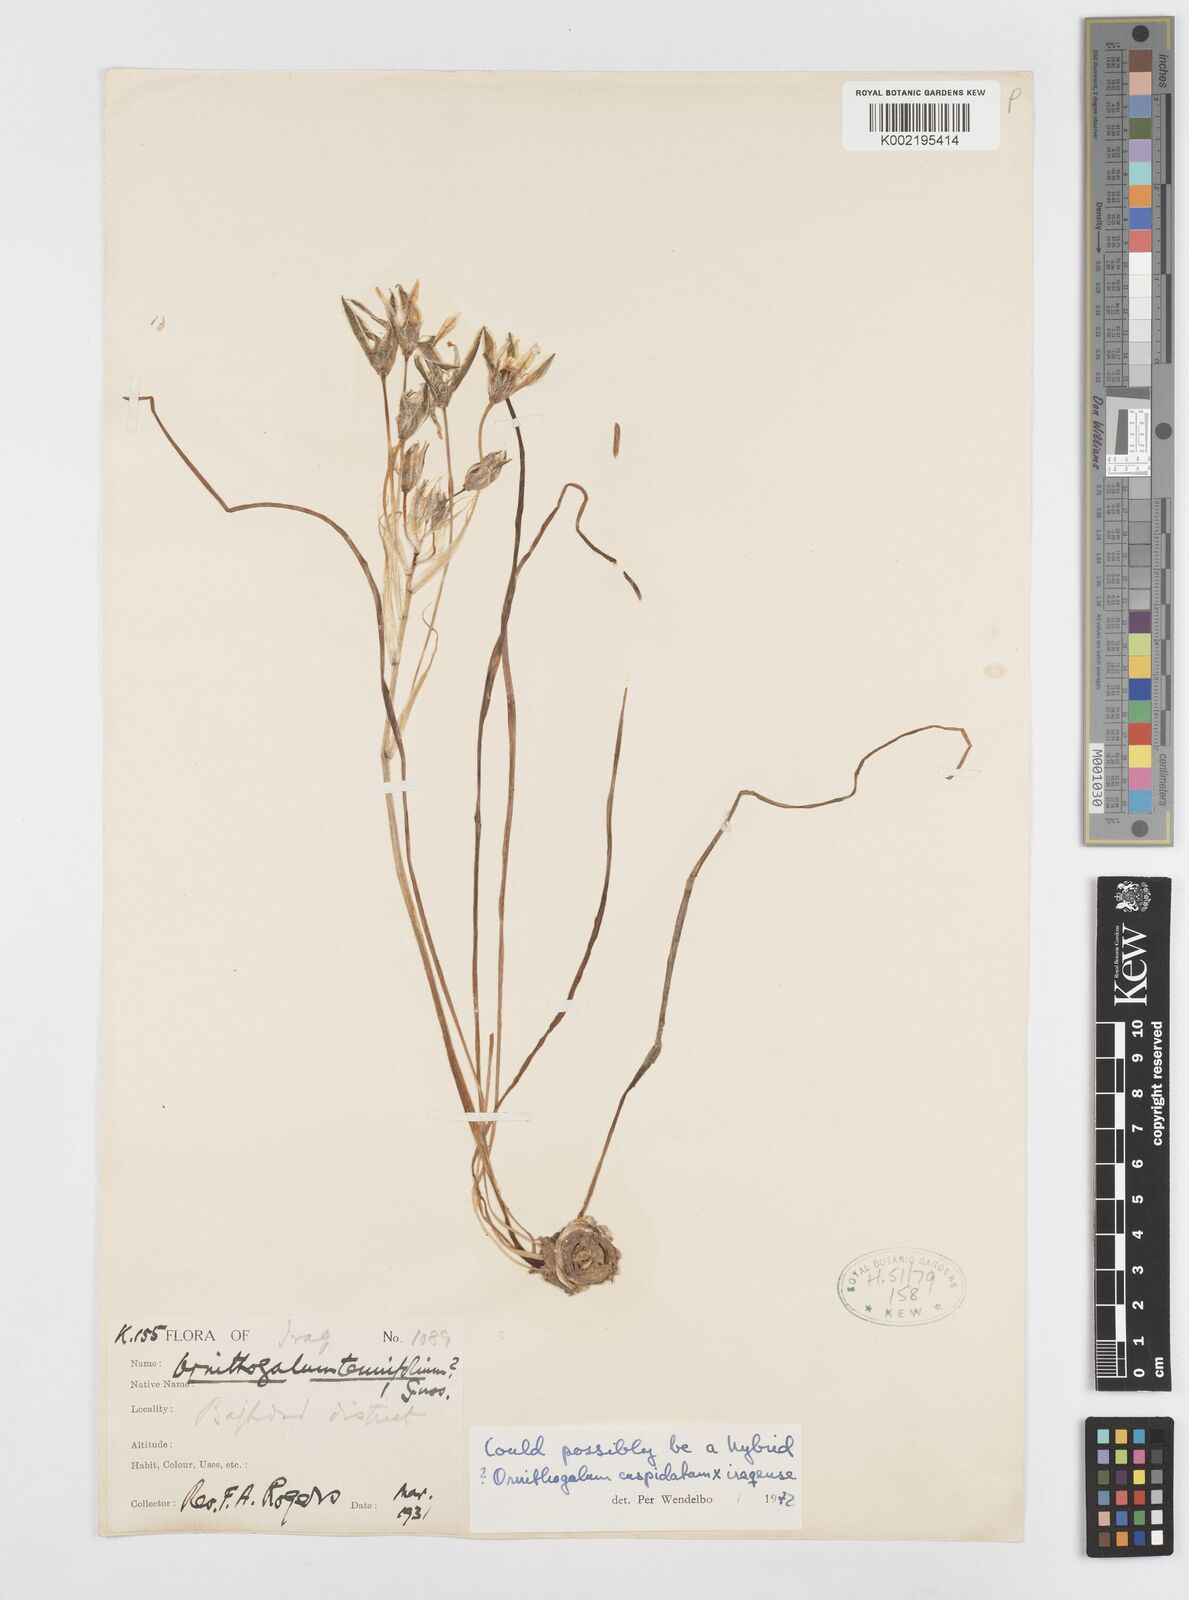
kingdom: Plantae
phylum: Tracheophyta
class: Liliopsida
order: Asparagales
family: Asparagaceae
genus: Ornithogalum
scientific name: Ornithogalum
